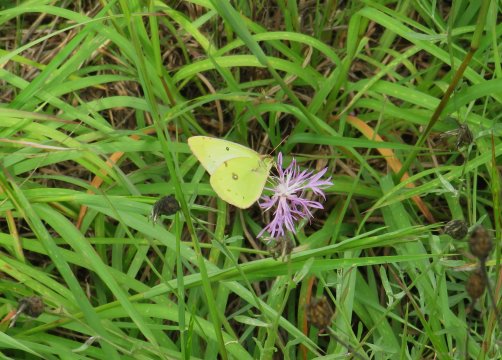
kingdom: Animalia
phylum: Arthropoda
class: Insecta
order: Lepidoptera
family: Pieridae
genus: Colias
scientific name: Colias philodice
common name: Clouded Sulphur
